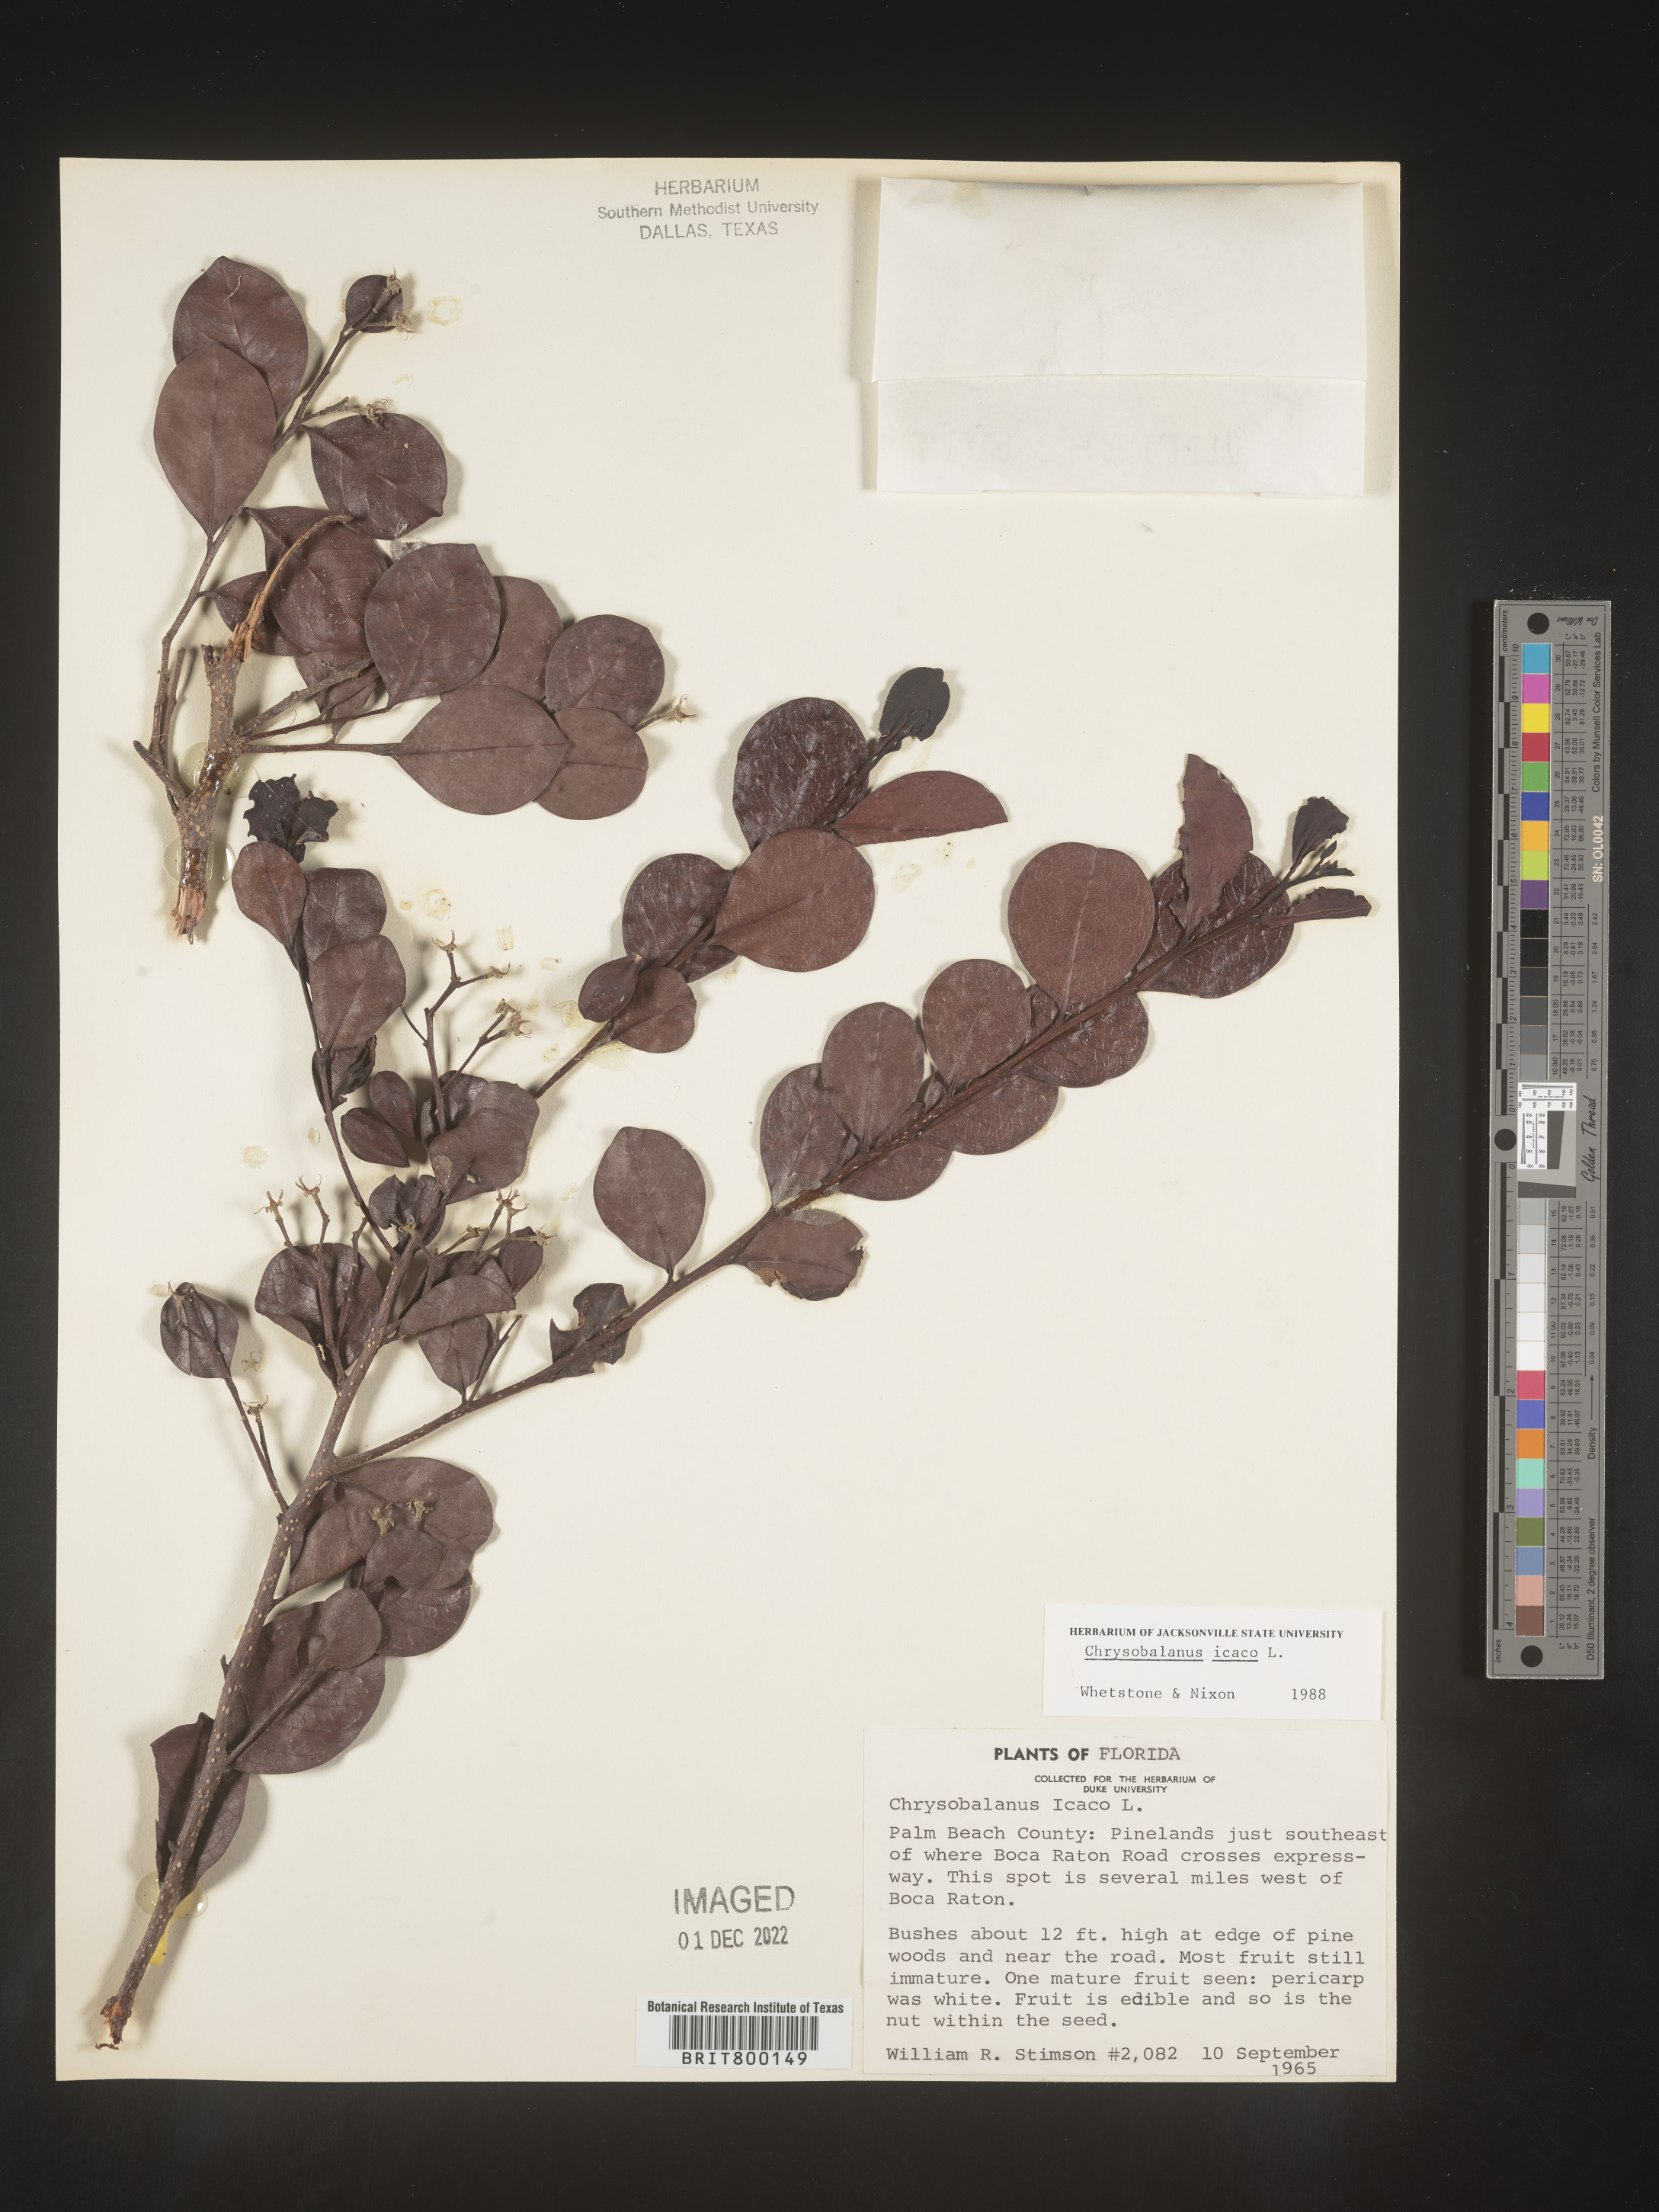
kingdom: Plantae
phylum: Tracheophyta
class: Magnoliopsida
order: Malpighiales
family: Chrysobalanaceae
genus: Chrysobalanus
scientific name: Chrysobalanus icaco
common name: Coco plum
